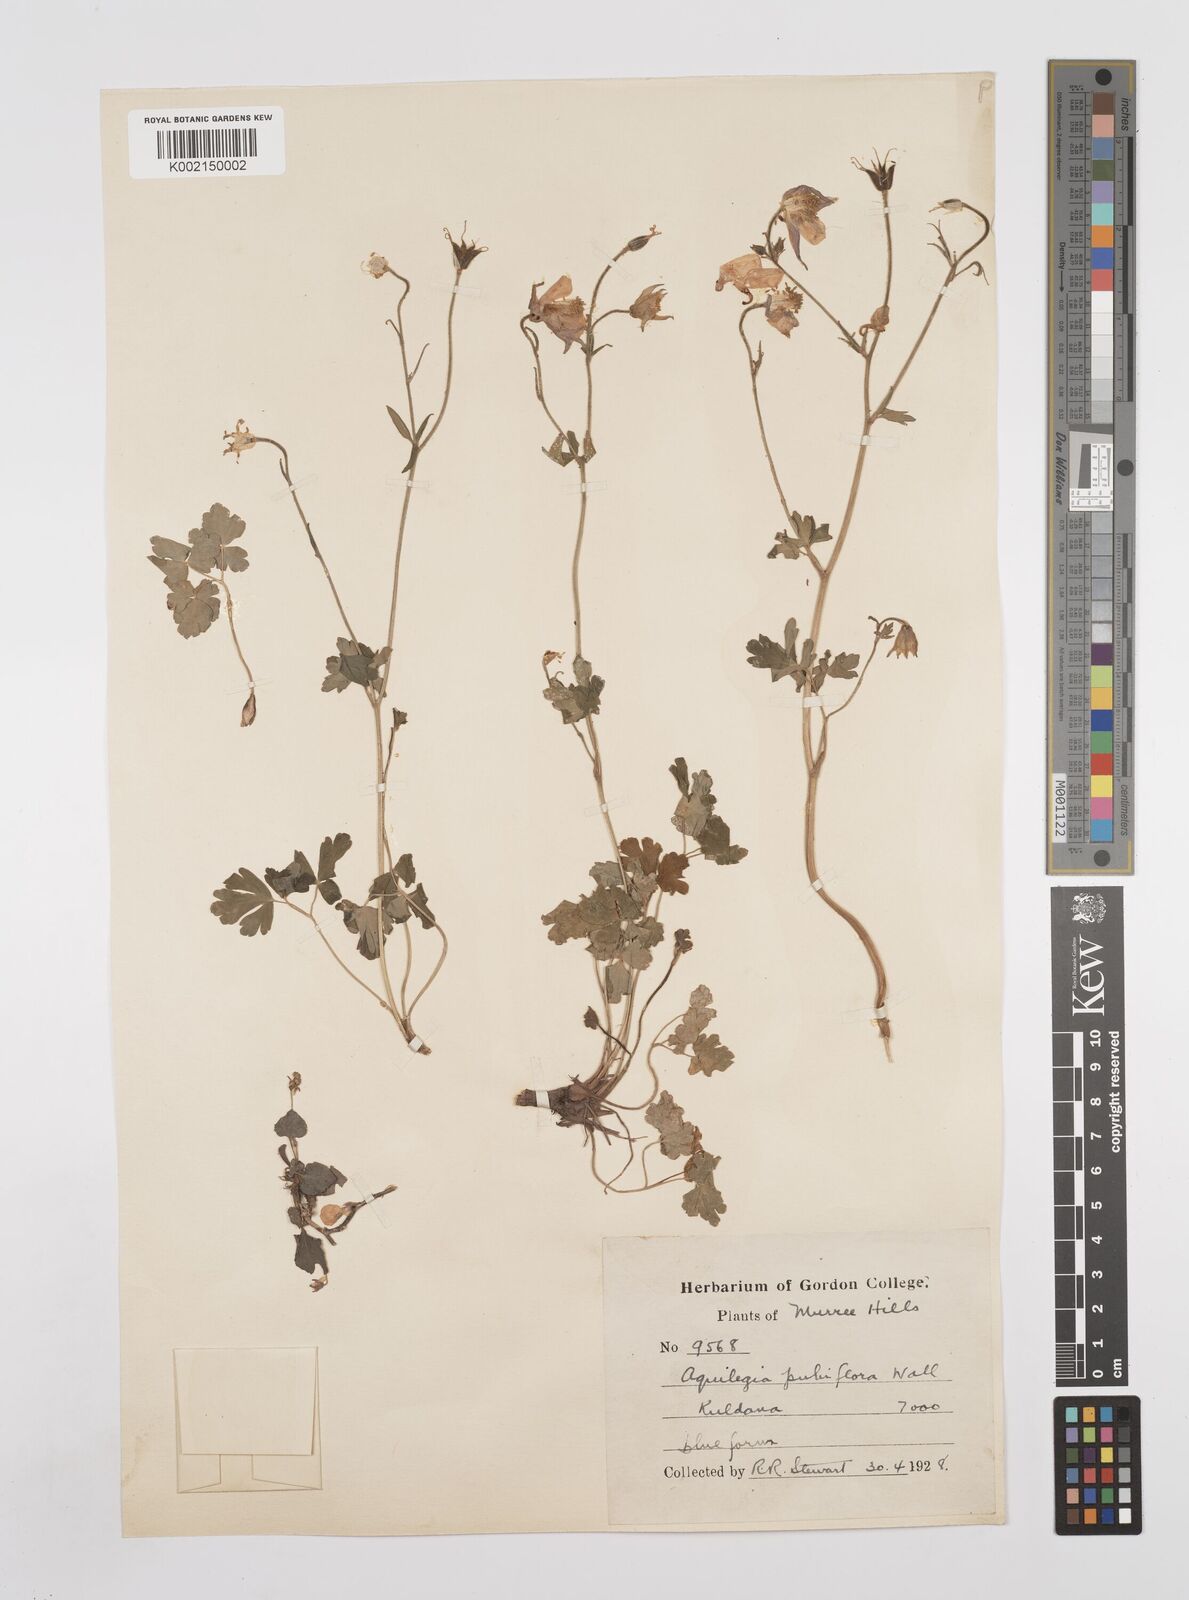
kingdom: Plantae
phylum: Tracheophyta
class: Magnoliopsida
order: Ranunculales
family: Ranunculaceae
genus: Aquilegia
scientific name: Aquilegia pubiflora
